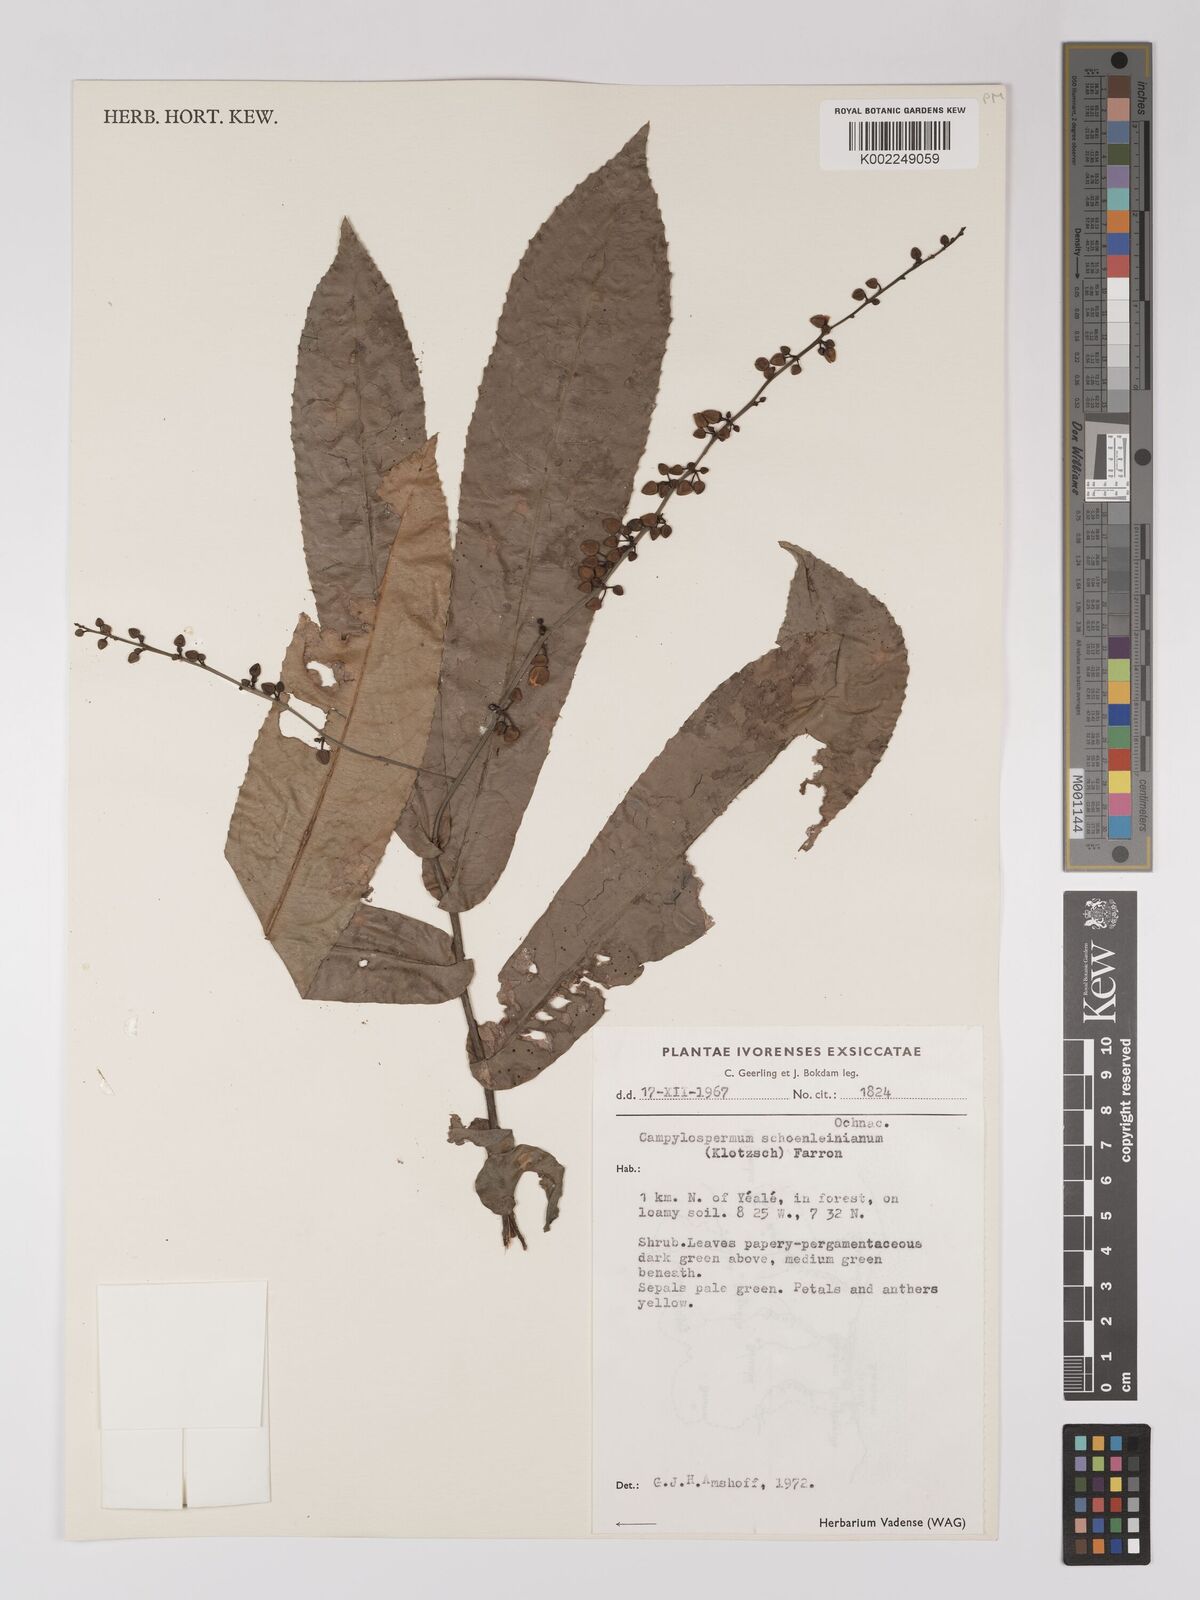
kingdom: Plantae
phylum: Tracheophyta
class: Magnoliopsida
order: Malpighiales
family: Ochnaceae
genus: Campylospermum
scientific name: Campylospermum schoenleinianum
